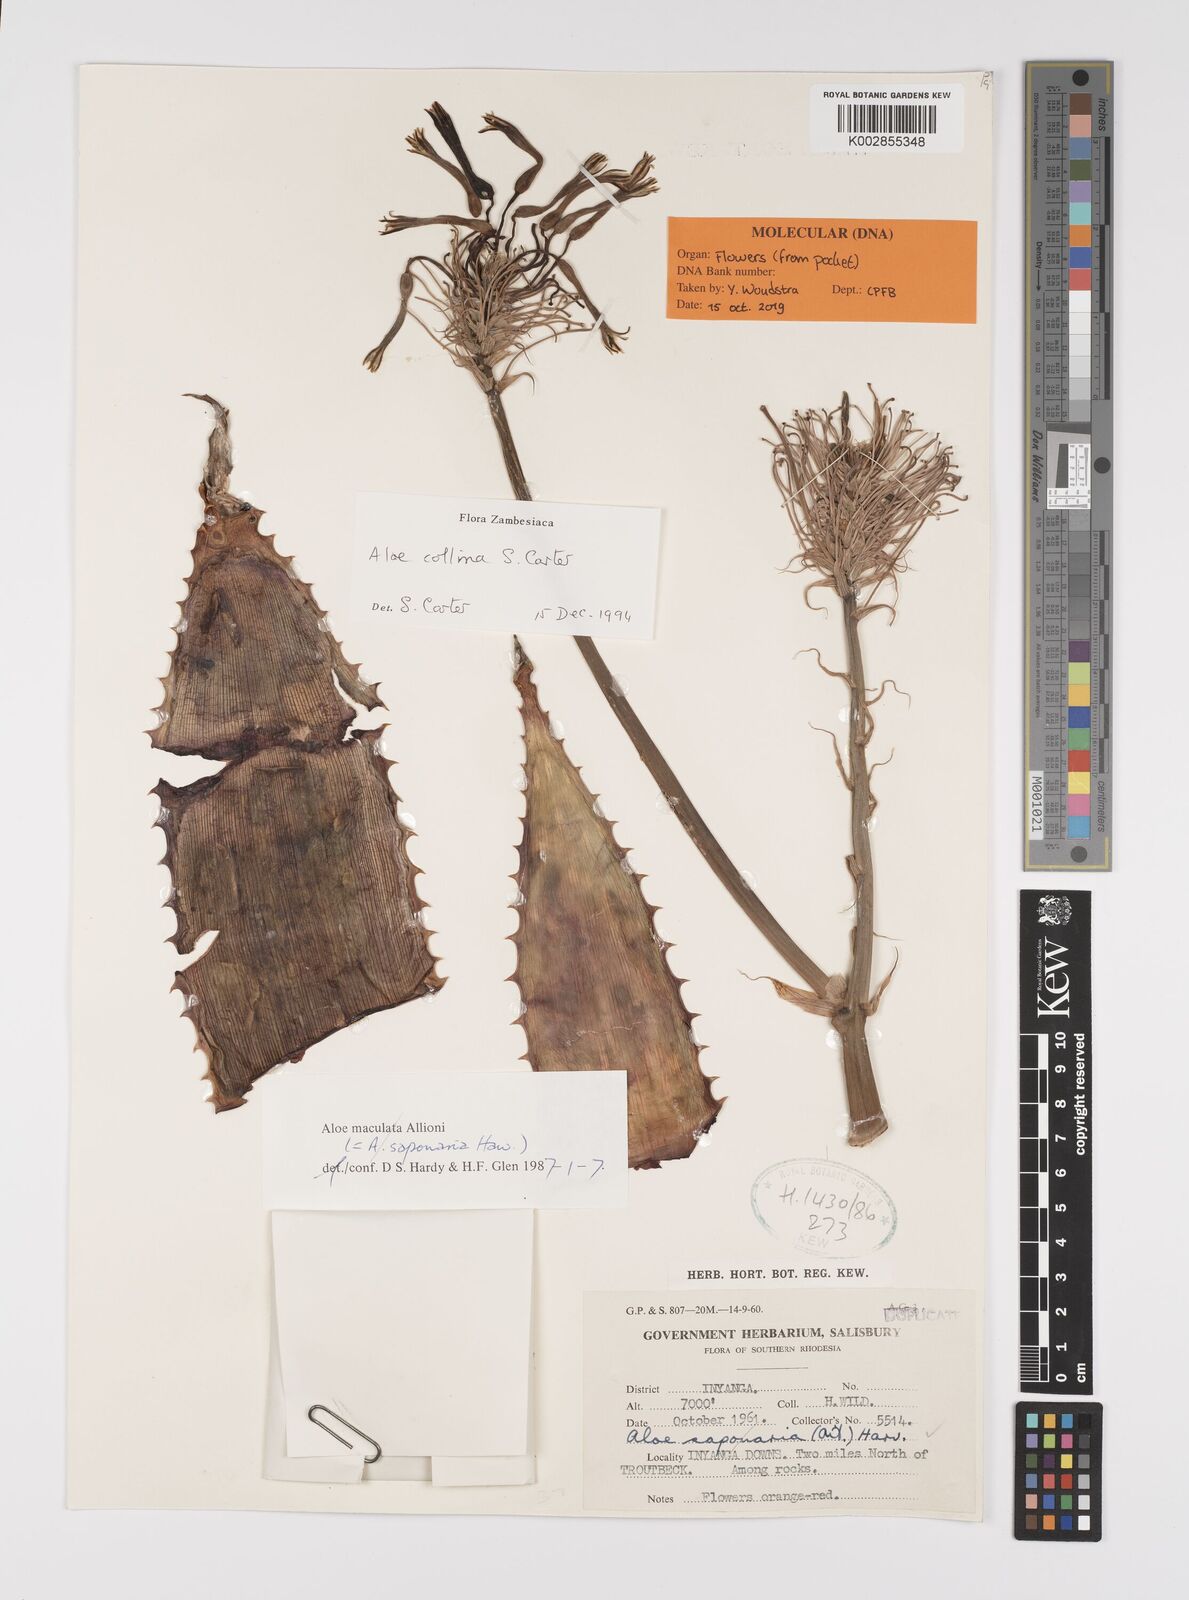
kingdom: Plantae
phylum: Tracheophyta
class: Liliopsida
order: Asparagales
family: Asphodelaceae
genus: Aloe
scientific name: Aloe collina
